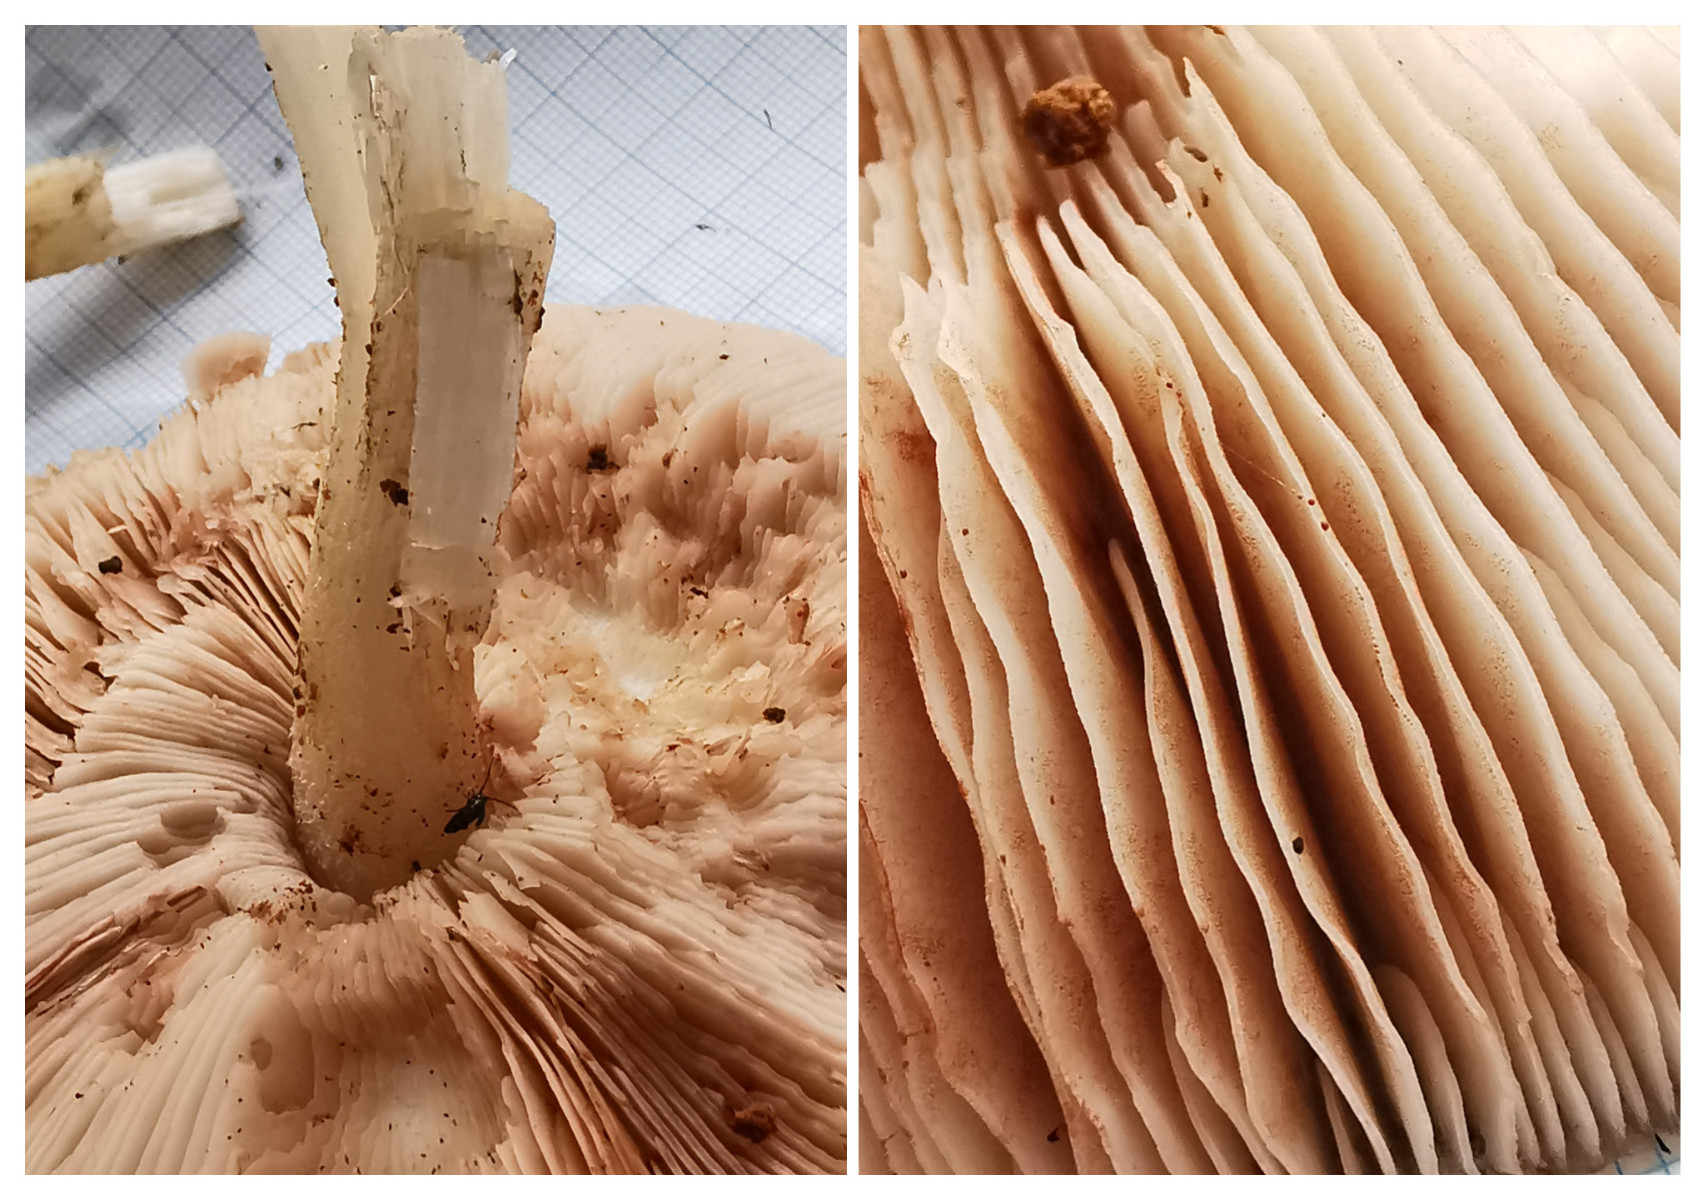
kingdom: Fungi
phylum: Basidiomycota
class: Agaricomycetes
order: Agaricales
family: Pluteaceae
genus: Pluteus
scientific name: Pluteus cervinus
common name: sodfarvet skærmhat
